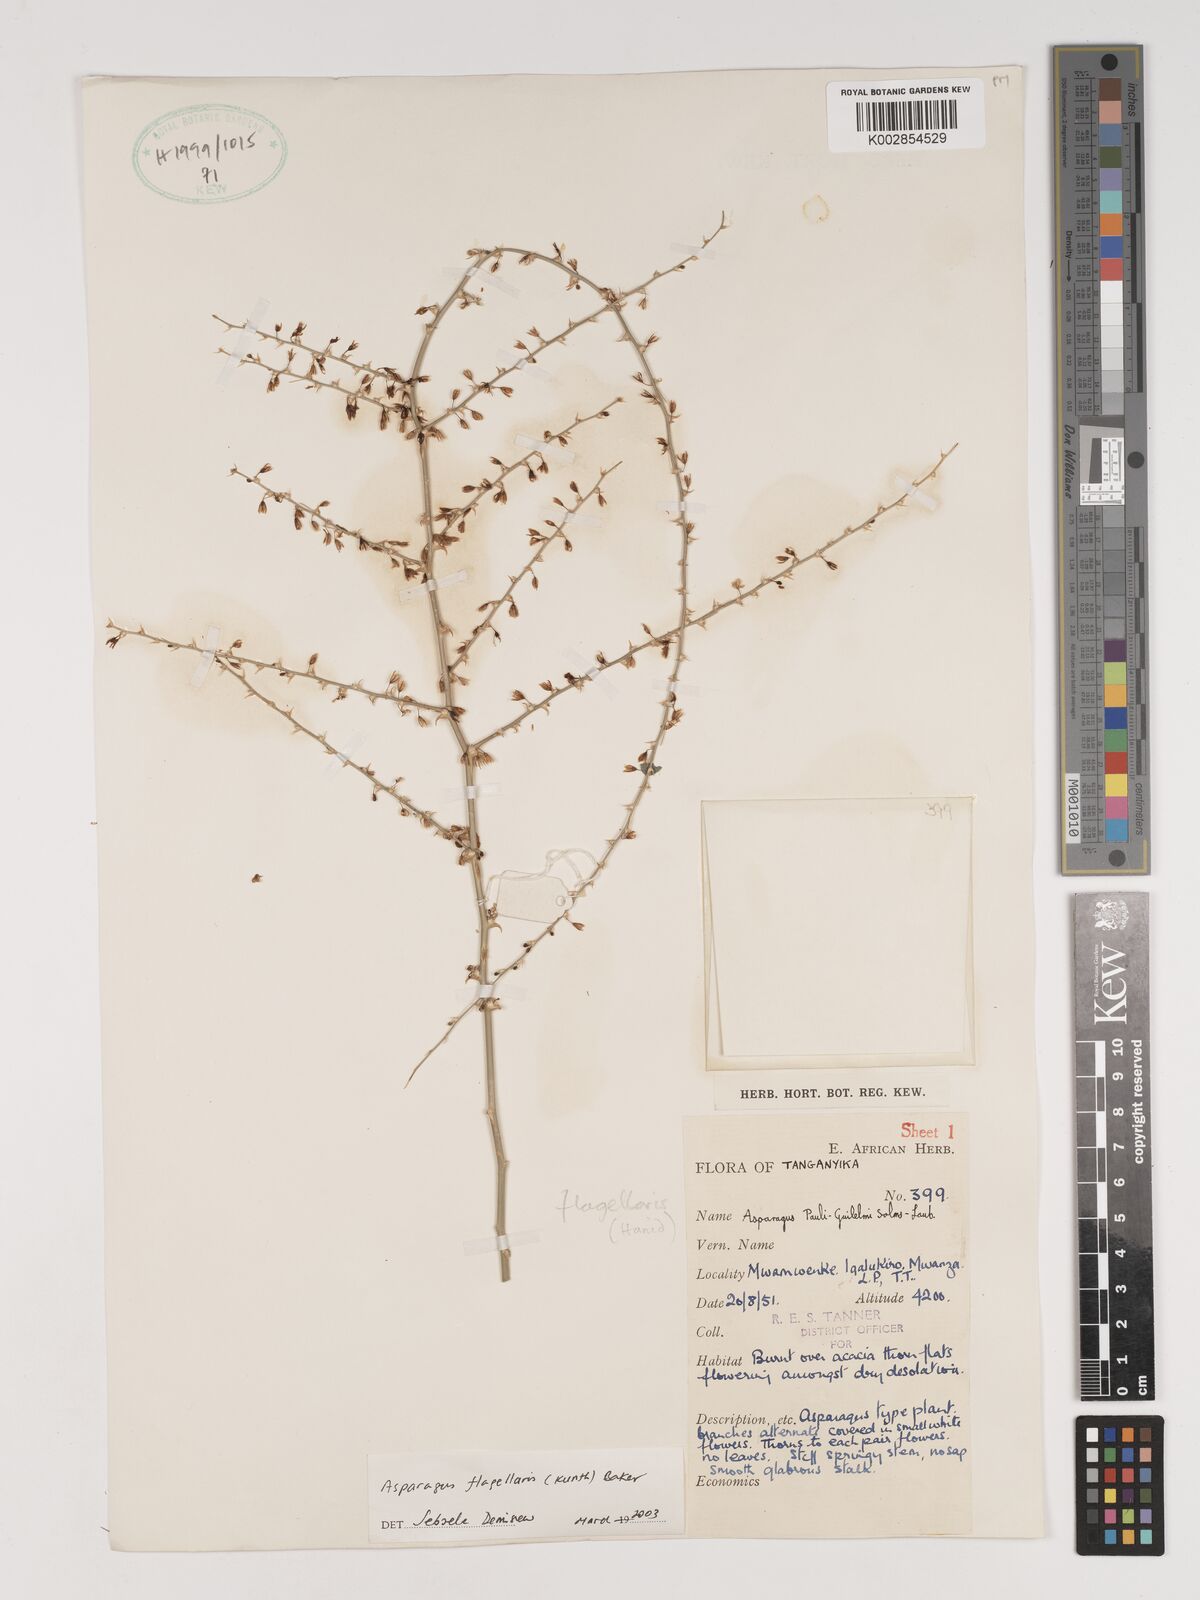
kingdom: Plantae
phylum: Tracheophyta
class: Liliopsida
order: Asparagales
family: Asparagaceae
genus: Asparagus
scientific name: Asparagus flagellaris
